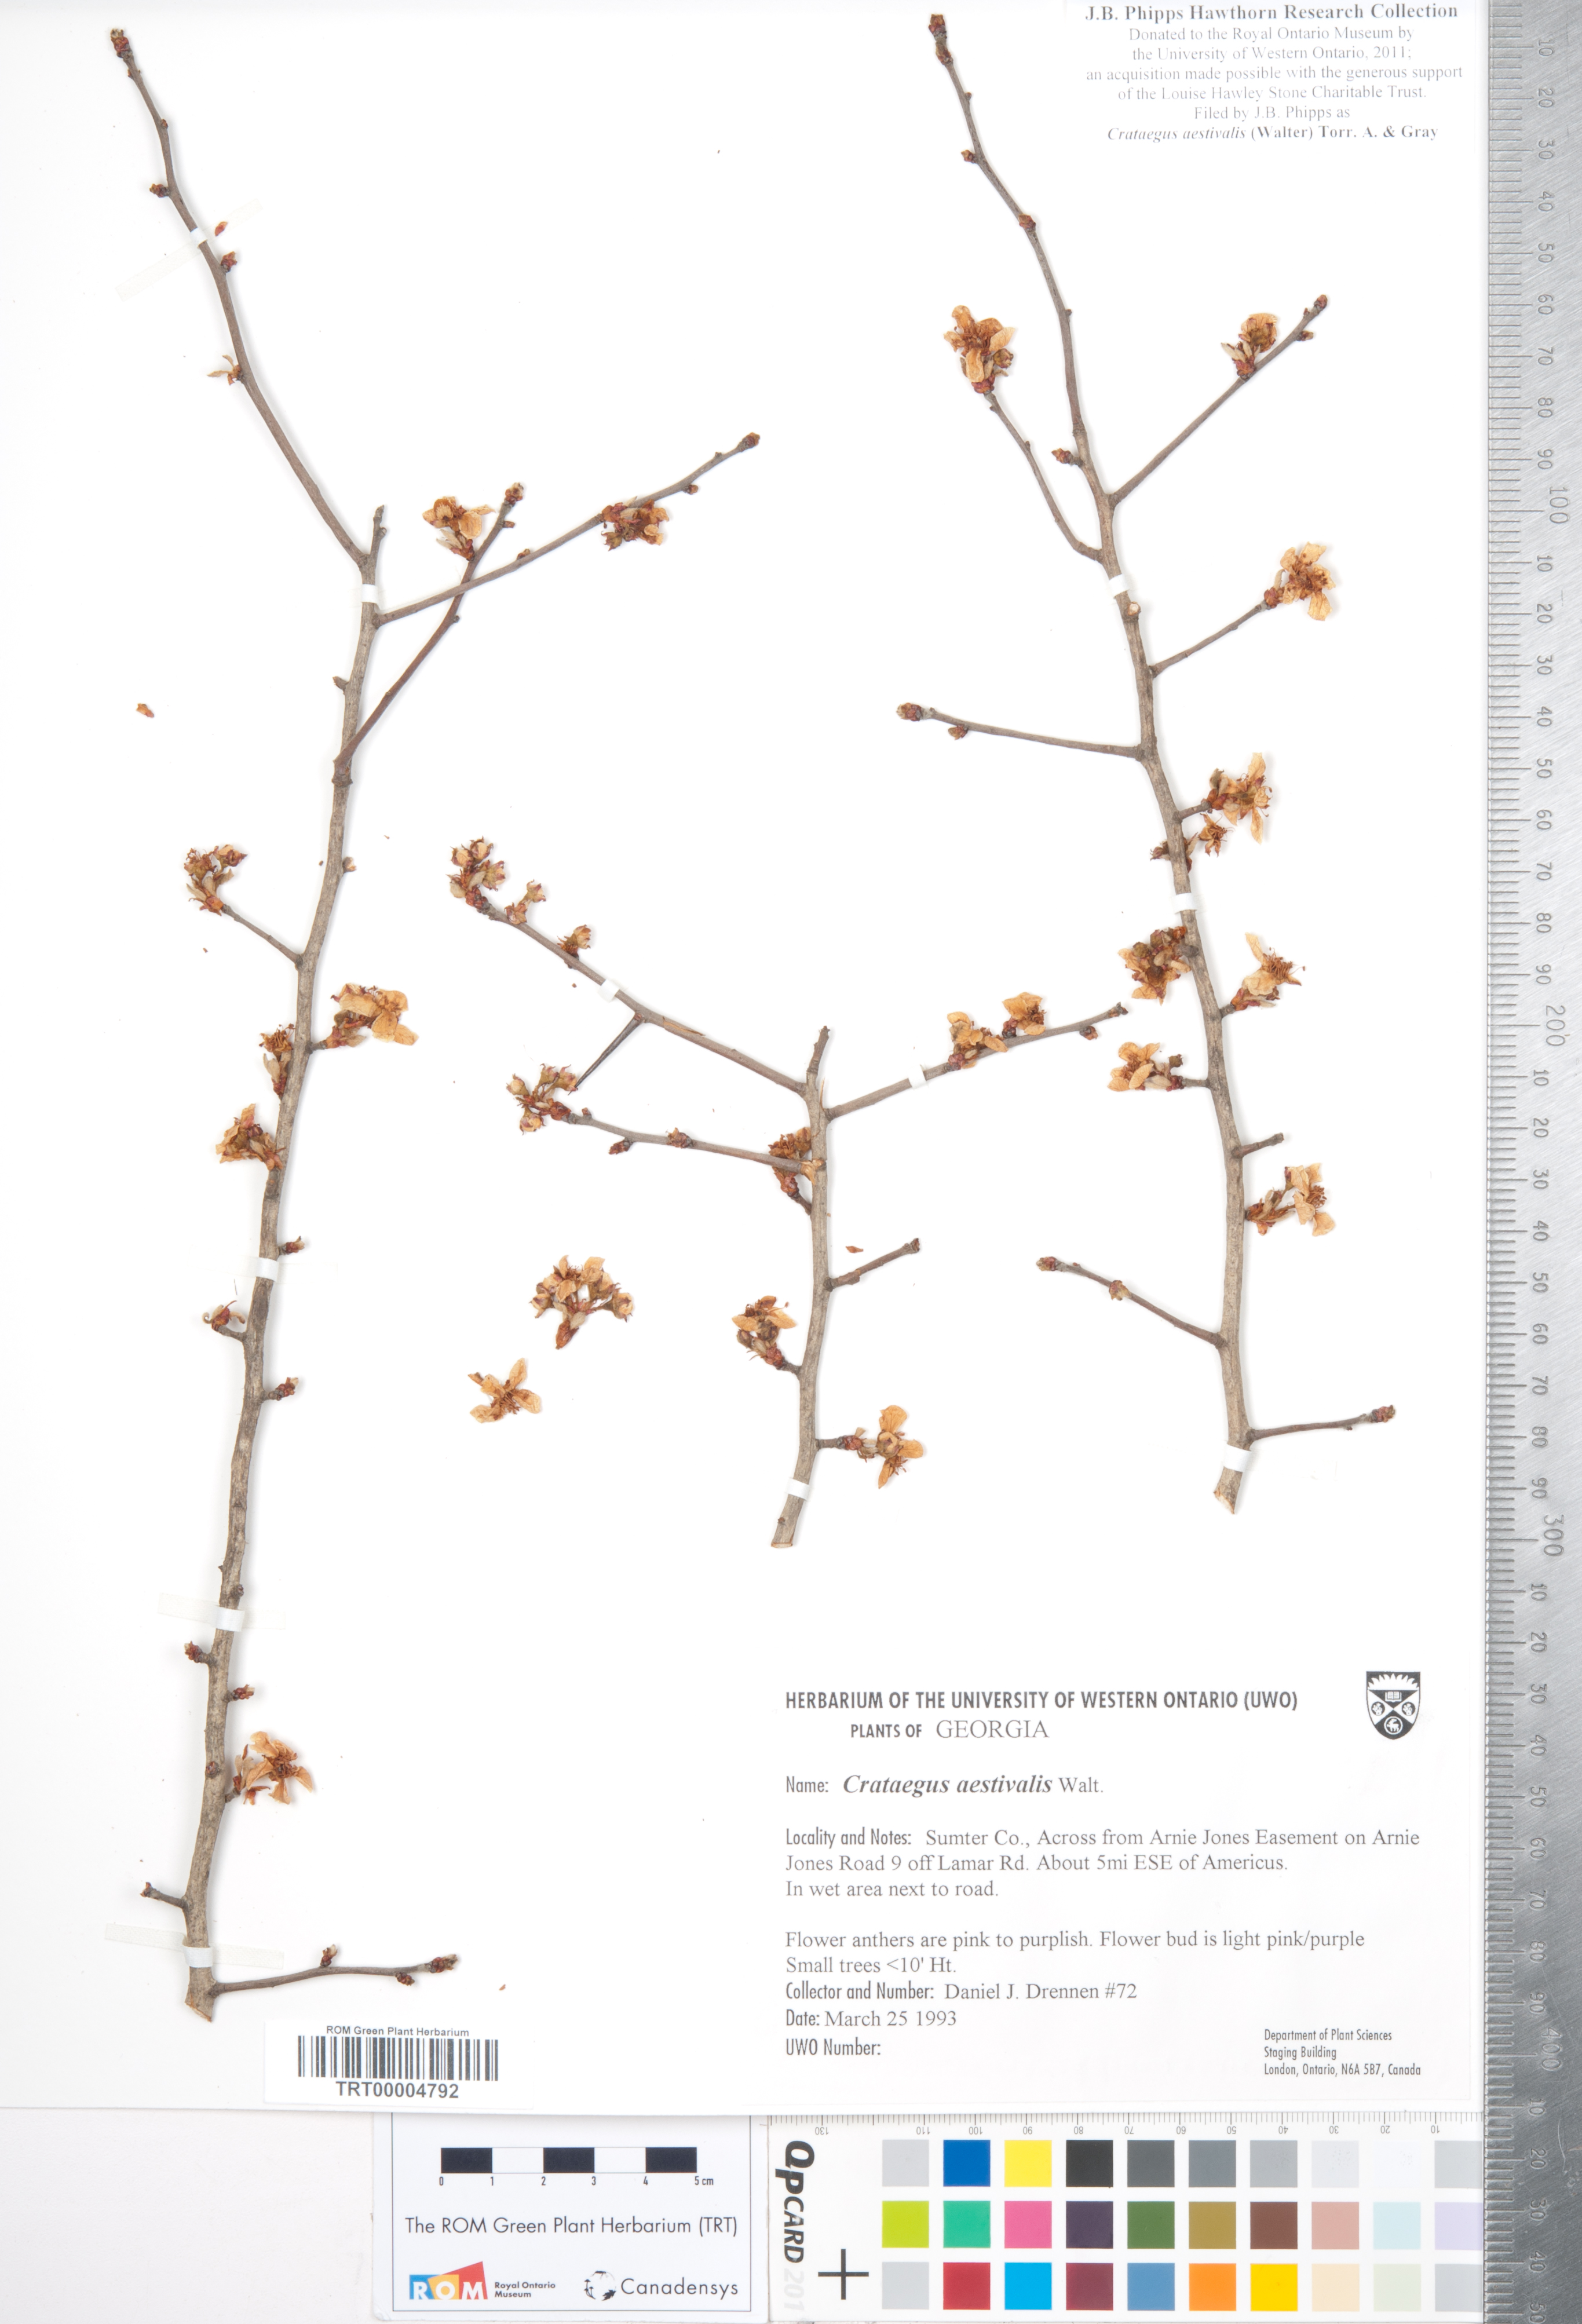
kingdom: Plantae
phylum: Tracheophyta
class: Magnoliopsida
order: Rosales
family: Rosaceae
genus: Crataegus
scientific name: Crataegus aestivalis
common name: Mayhaw
